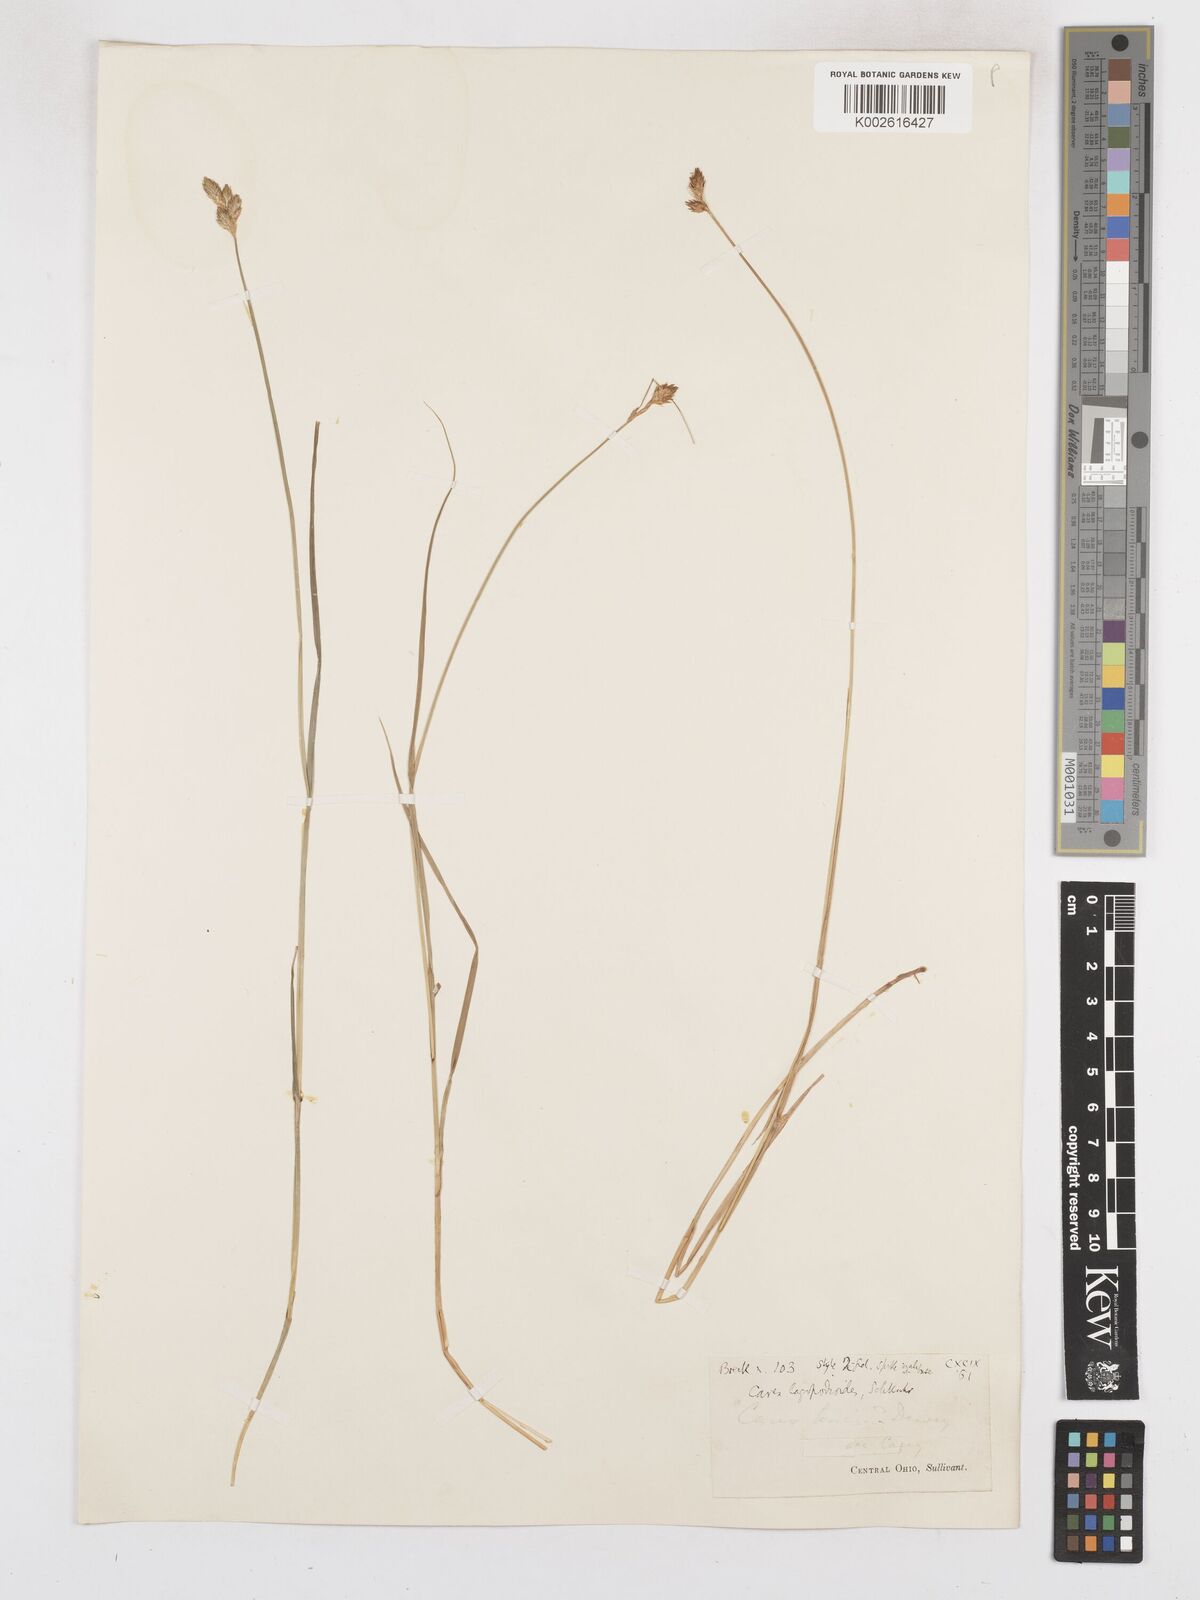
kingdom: Plantae
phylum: Tracheophyta
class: Liliopsida
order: Poales
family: Cyperaceae
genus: Carex
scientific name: Carex tribuloides
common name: Blunt broom sedge
